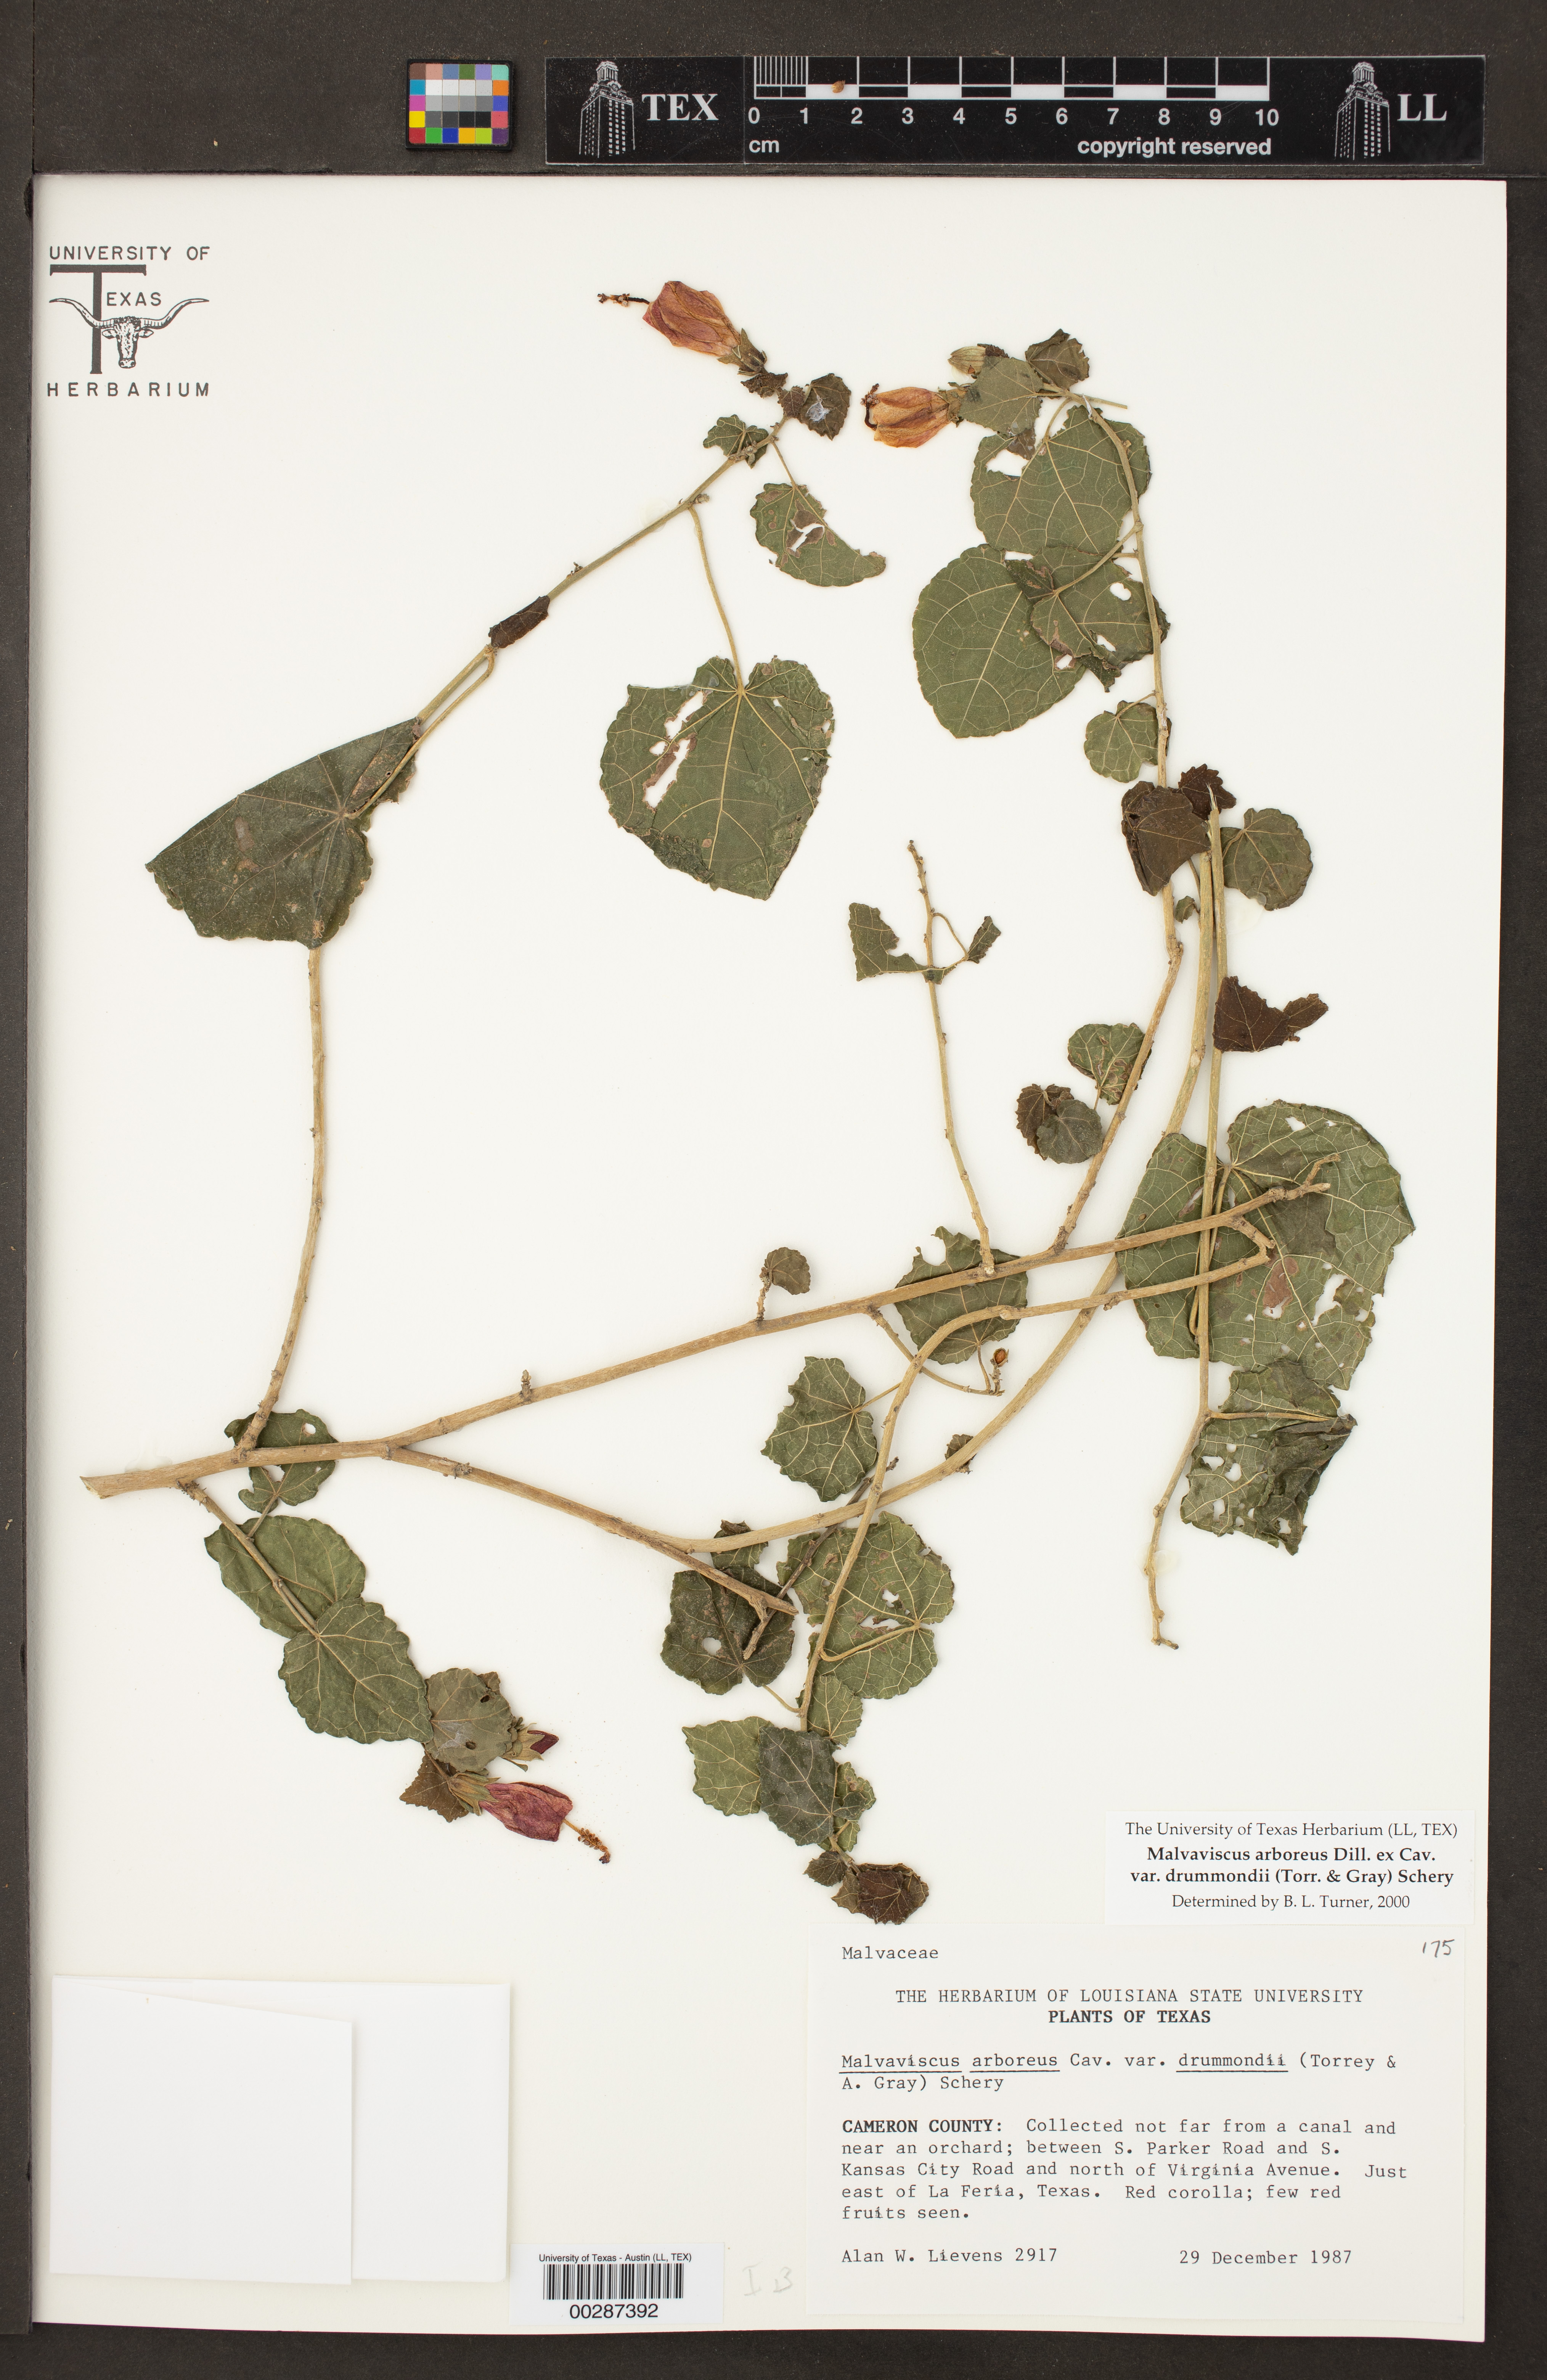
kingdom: Plantae
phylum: Tracheophyta
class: Magnoliopsida
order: Malvales
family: Malvaceae
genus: Malvaviscus
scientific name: Malvaviscus arboreus
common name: Wax mallow
